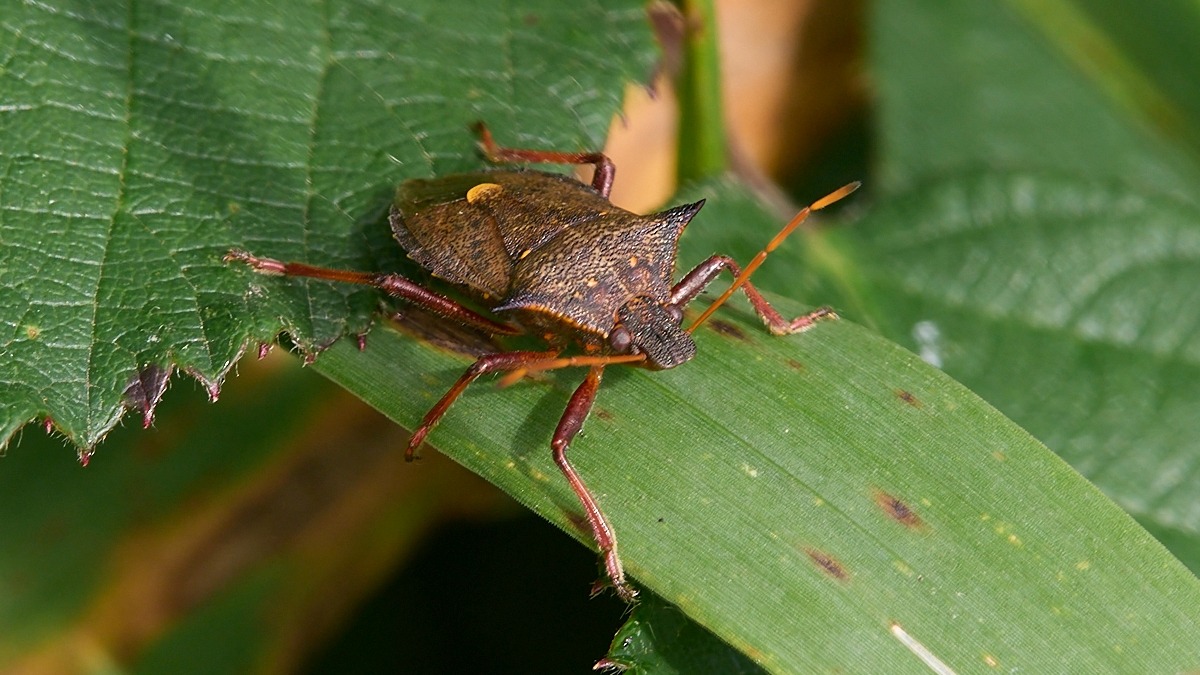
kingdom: Animalia
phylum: Arthropoda
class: Insecta
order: Hemiptera
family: Pentatomidae
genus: Picromerus
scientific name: Picromerus bidens
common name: Torntæge
